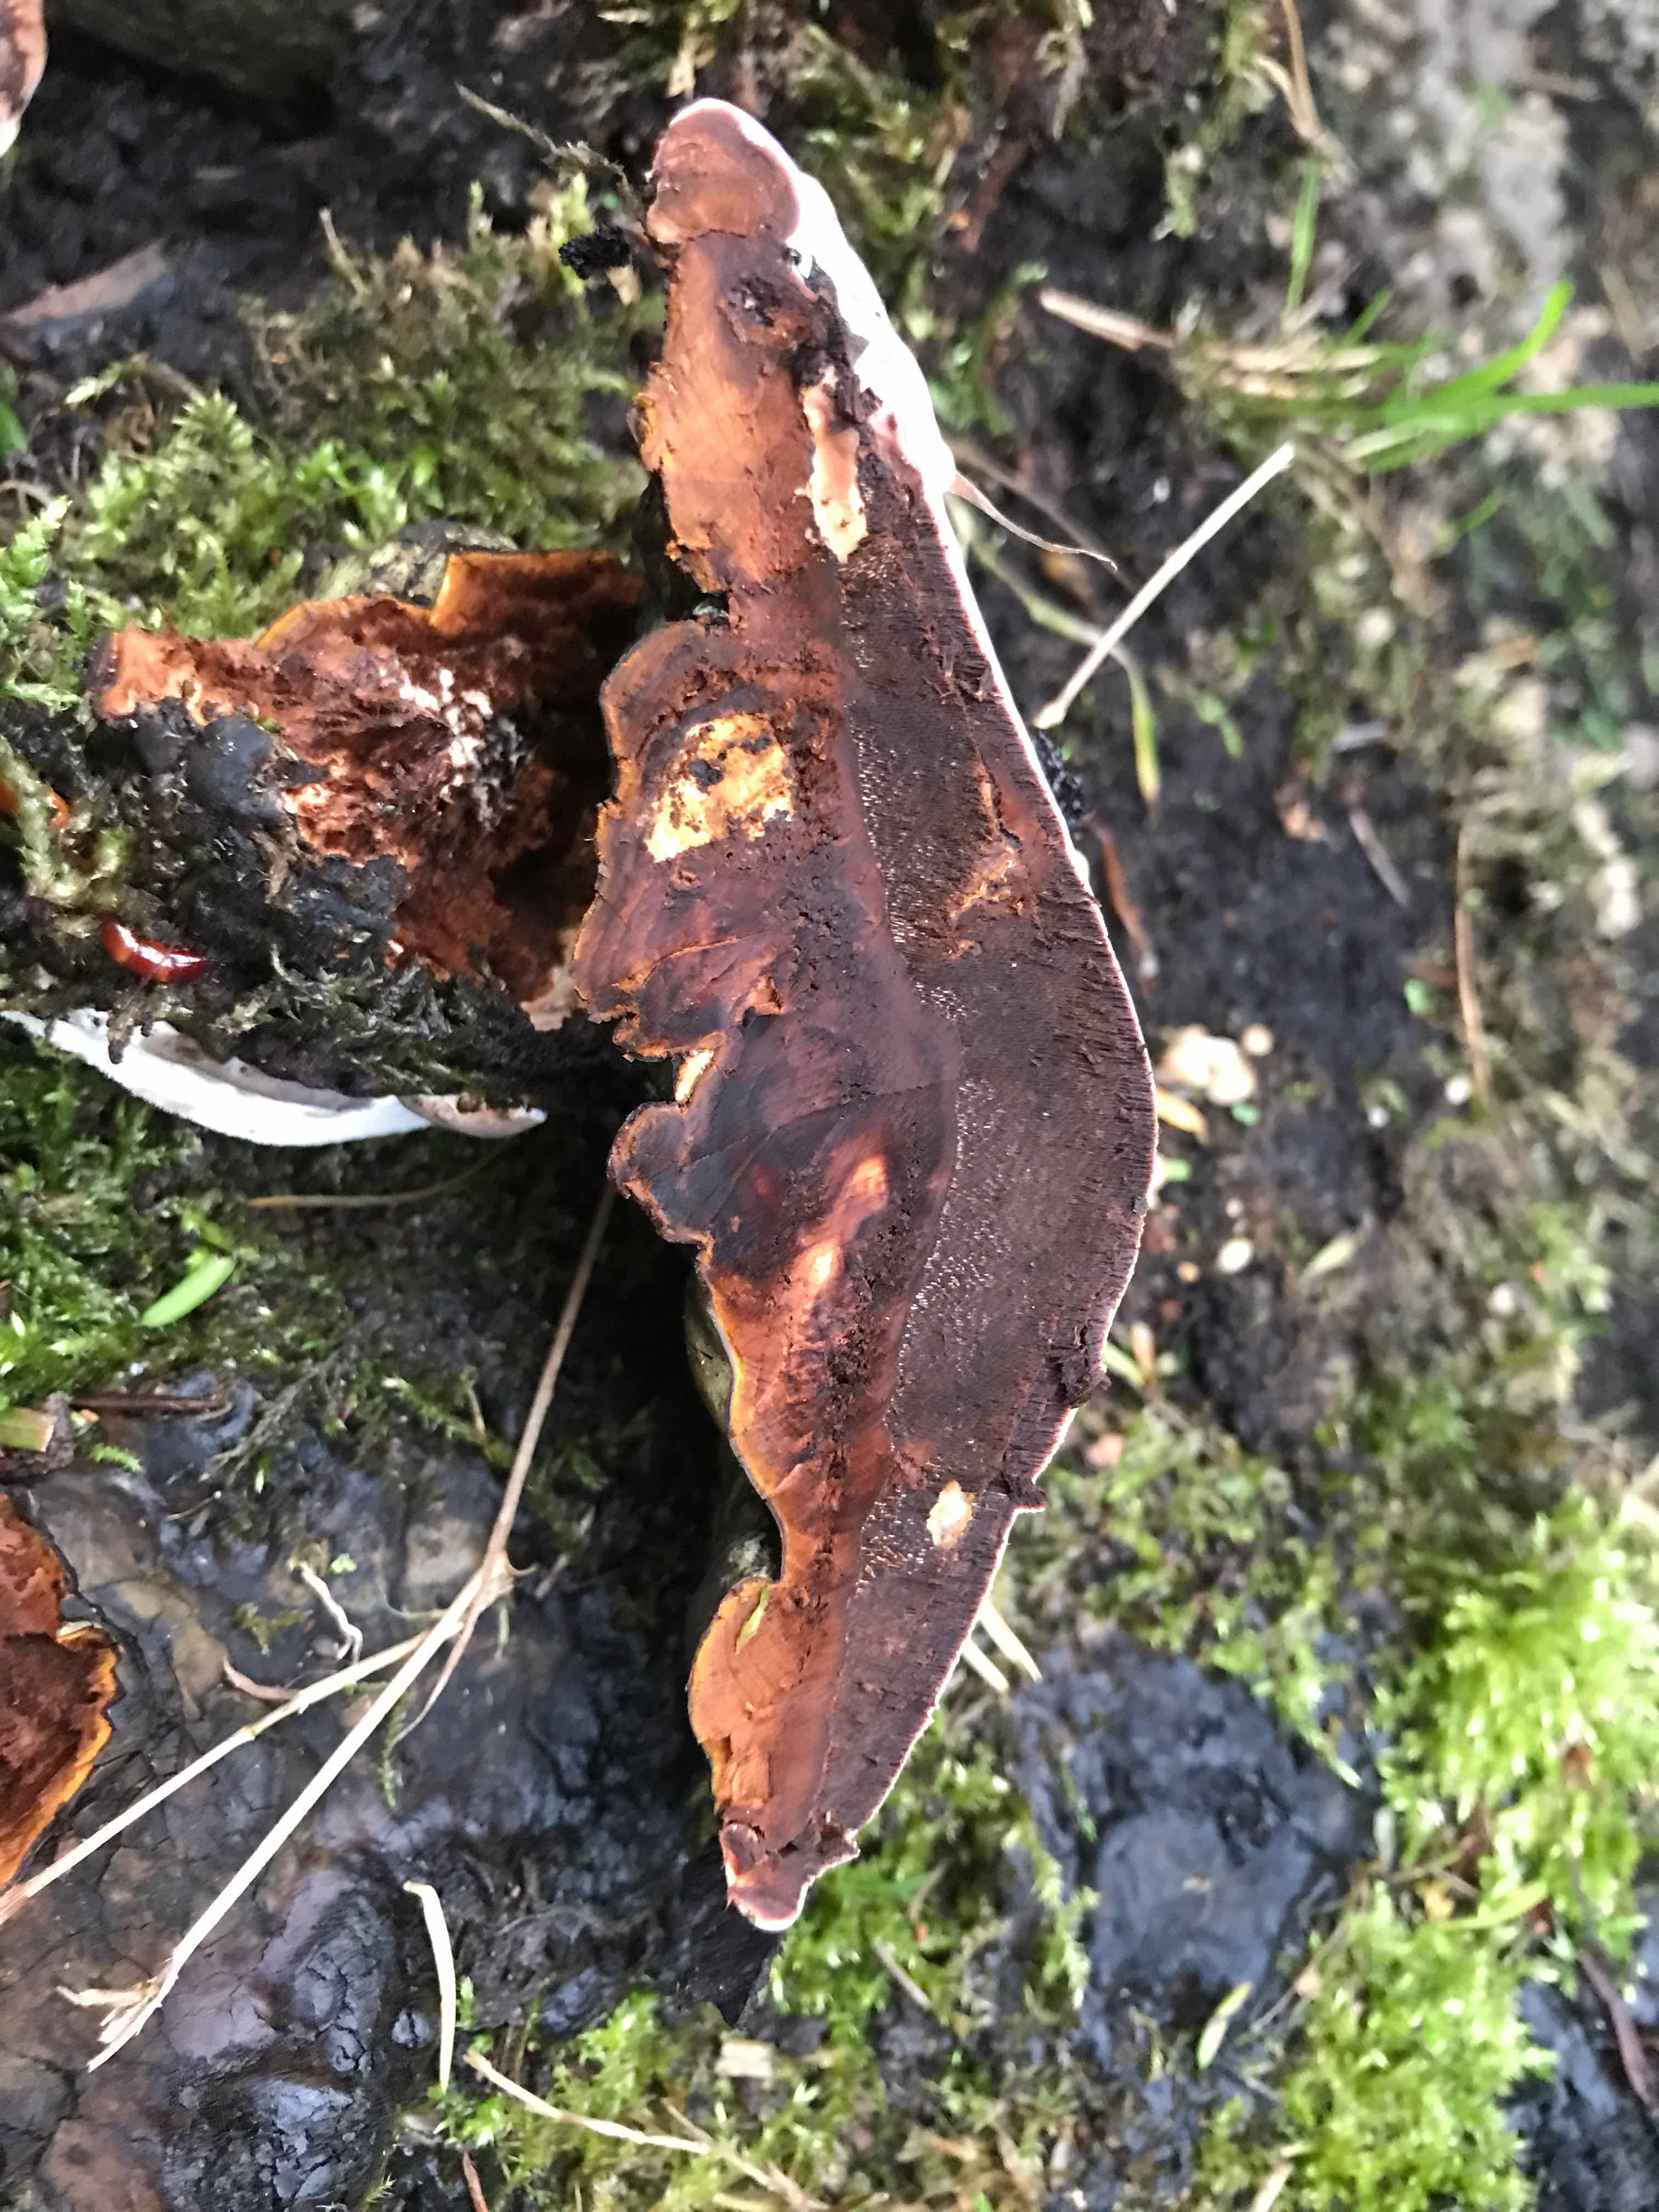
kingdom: Fungi
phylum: Basidiomycota
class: Agaricomycetes
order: Polyporales
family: Polyporaceae
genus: Ganoderma
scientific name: Ganoderma applanatum
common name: flad lakporesvamp
